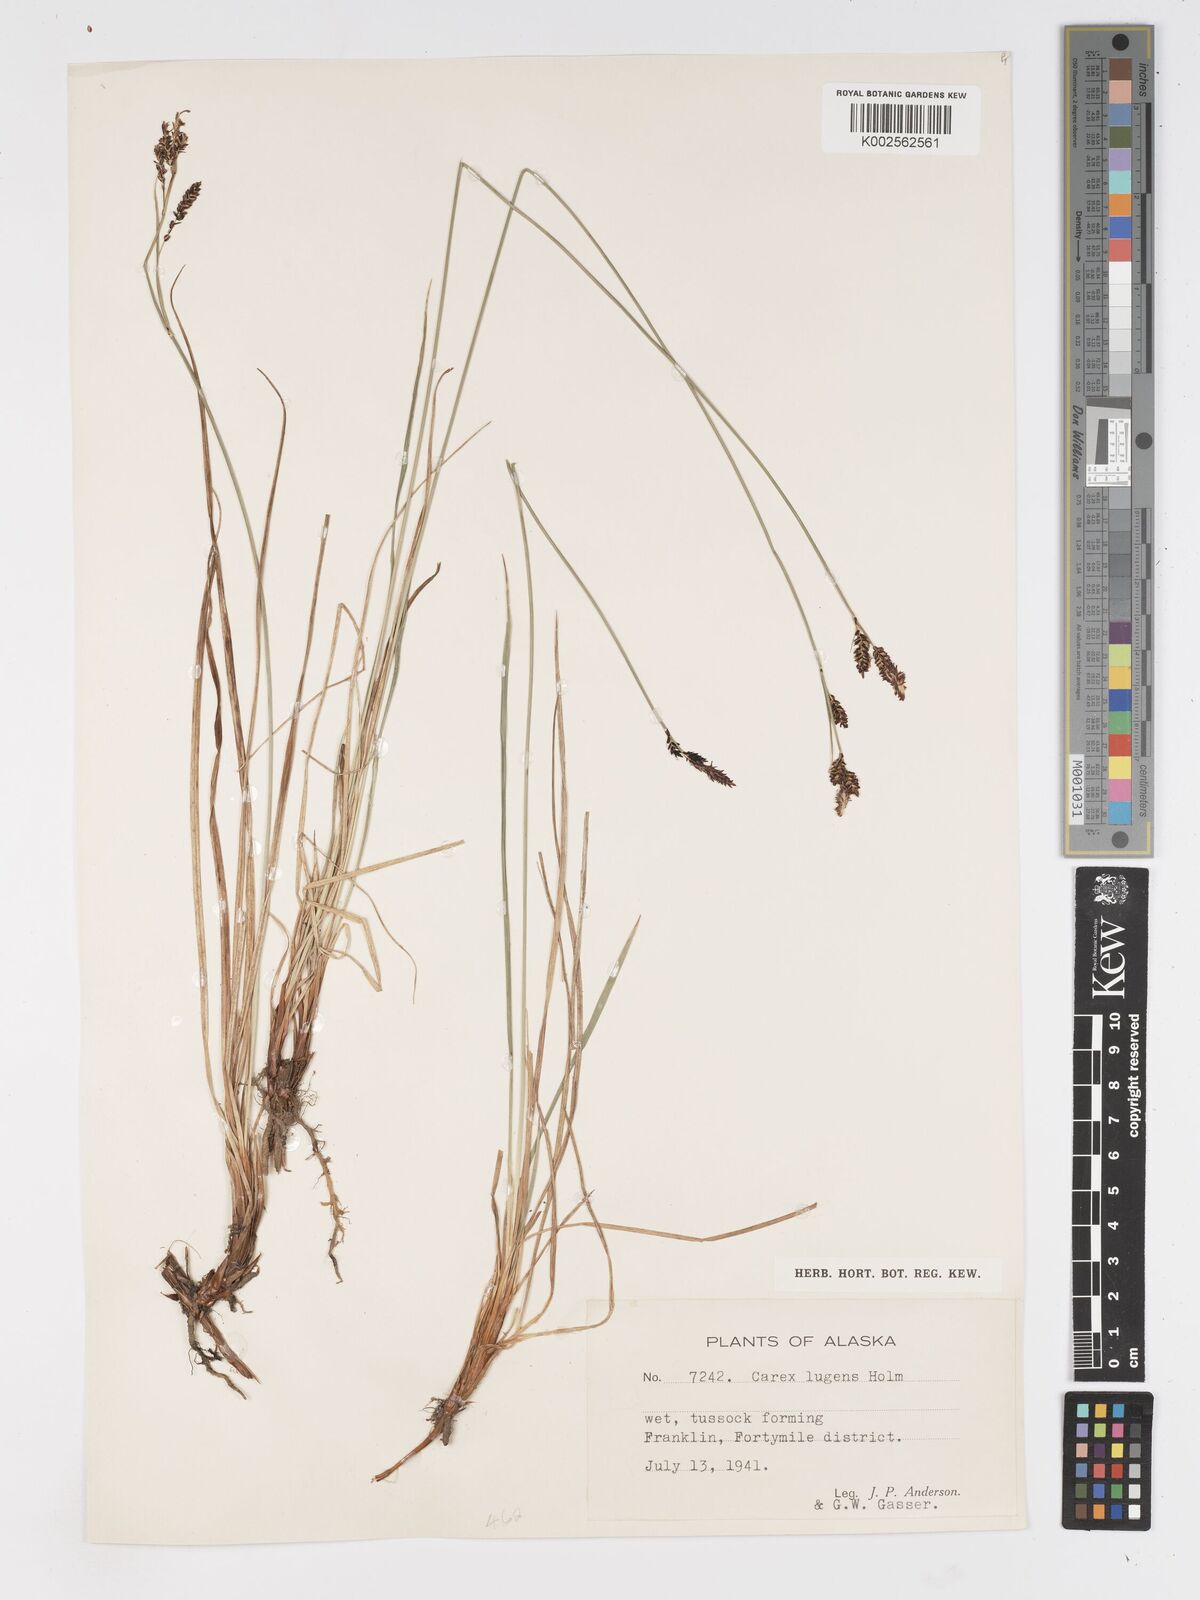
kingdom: Plantae
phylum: Tracheophyta
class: Liliopsida
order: Poales
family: Cyperaceae
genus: Carex
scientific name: Carex bigelowii
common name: Stiff sedge
